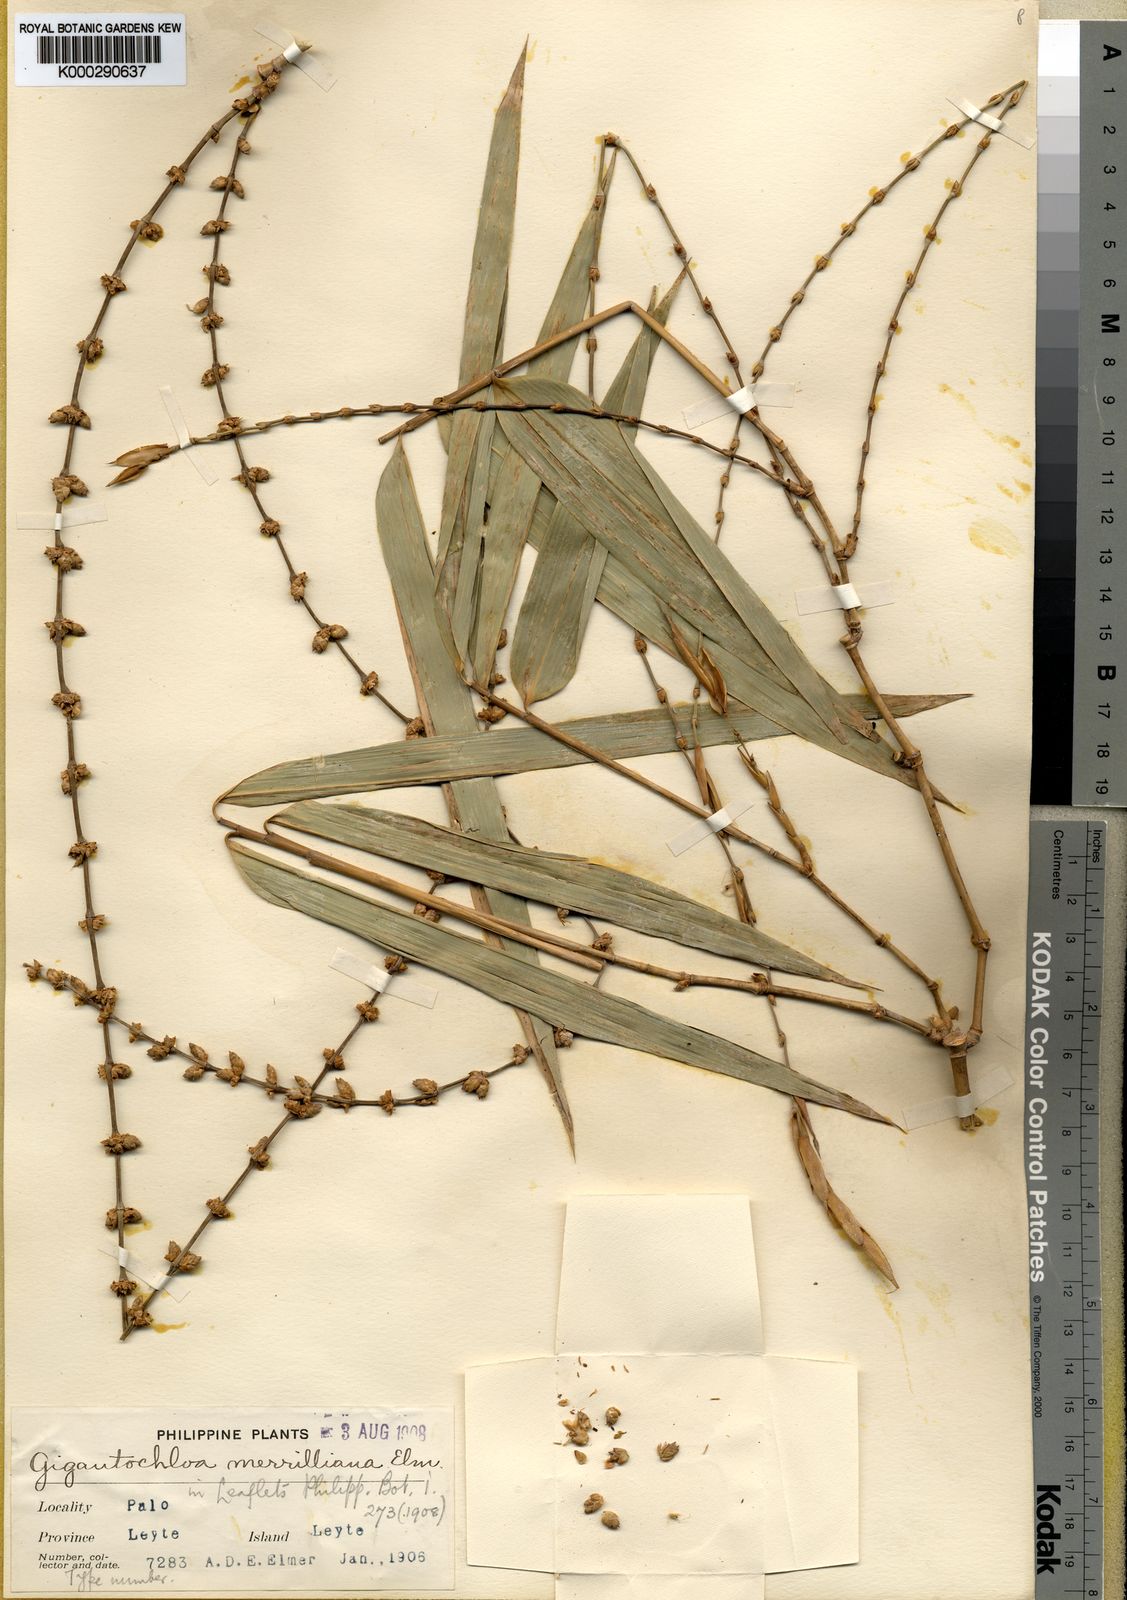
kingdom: Plantae
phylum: Tracheophyta
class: Liliopsida
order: Poales
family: Poaceae
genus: Dendrocalamus
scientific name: Dendrocalamus merrillianus
